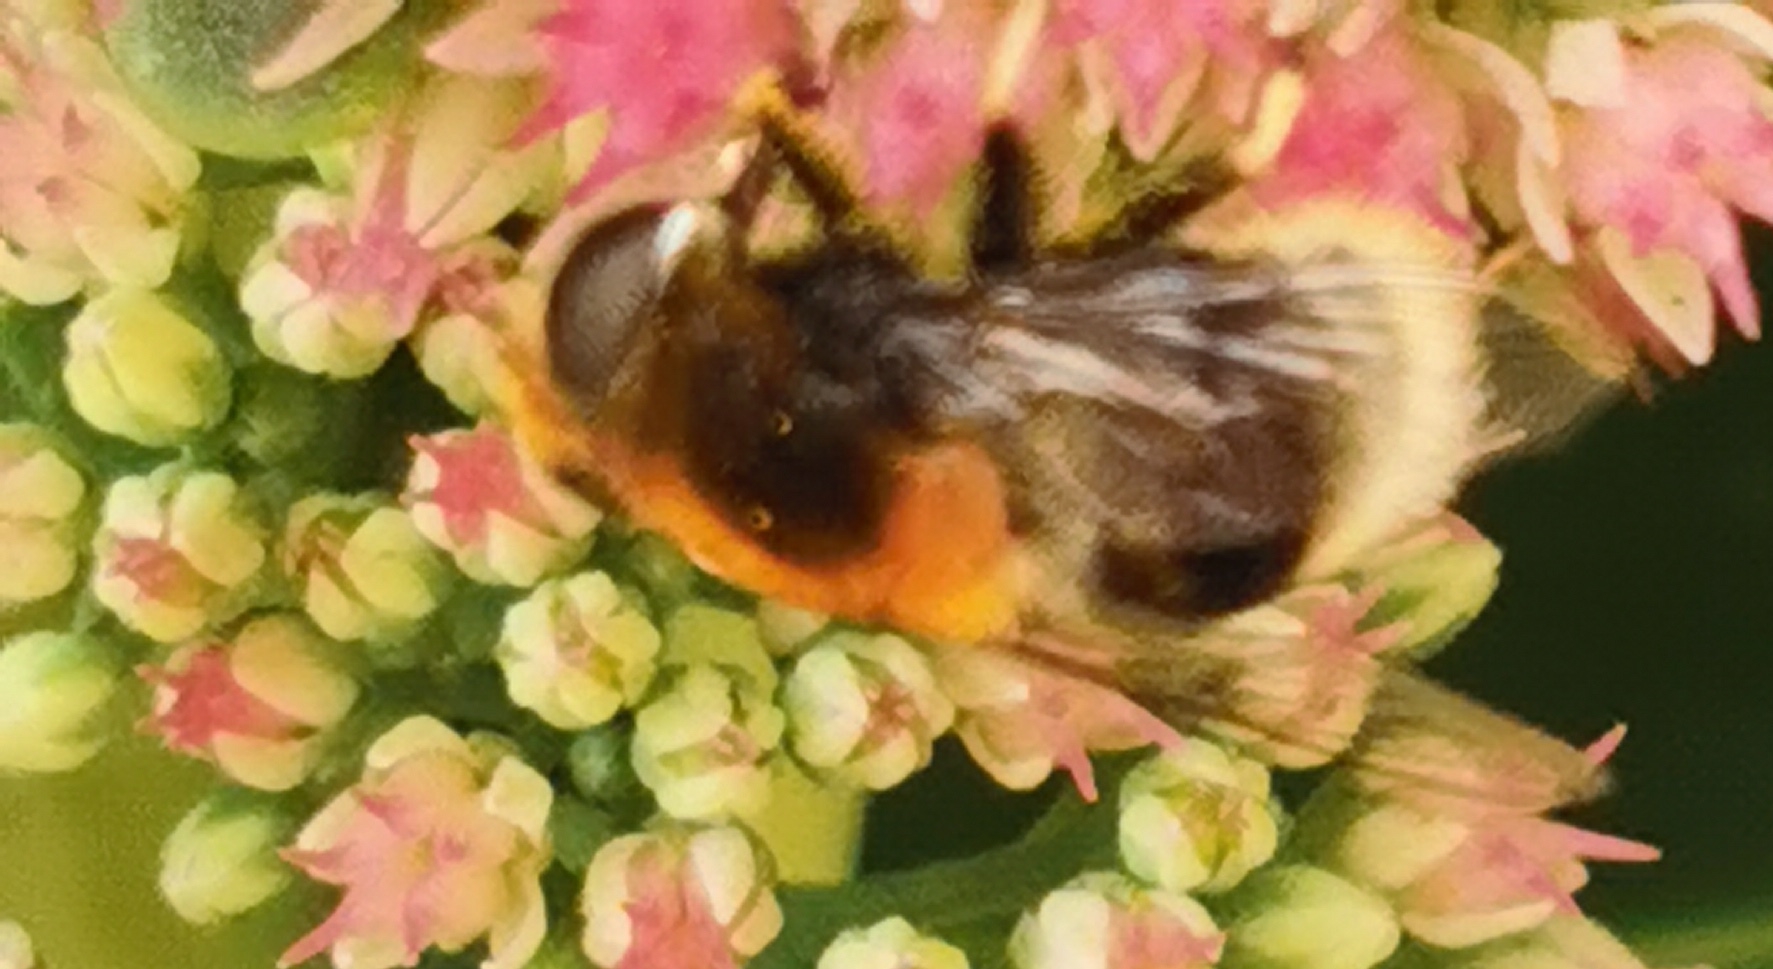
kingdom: Animalia
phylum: Arthropoda
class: Insecta
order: Diptera
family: Syrphidae
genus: Eristalis
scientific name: Eristalis intricaria
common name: Håret dyndflue
